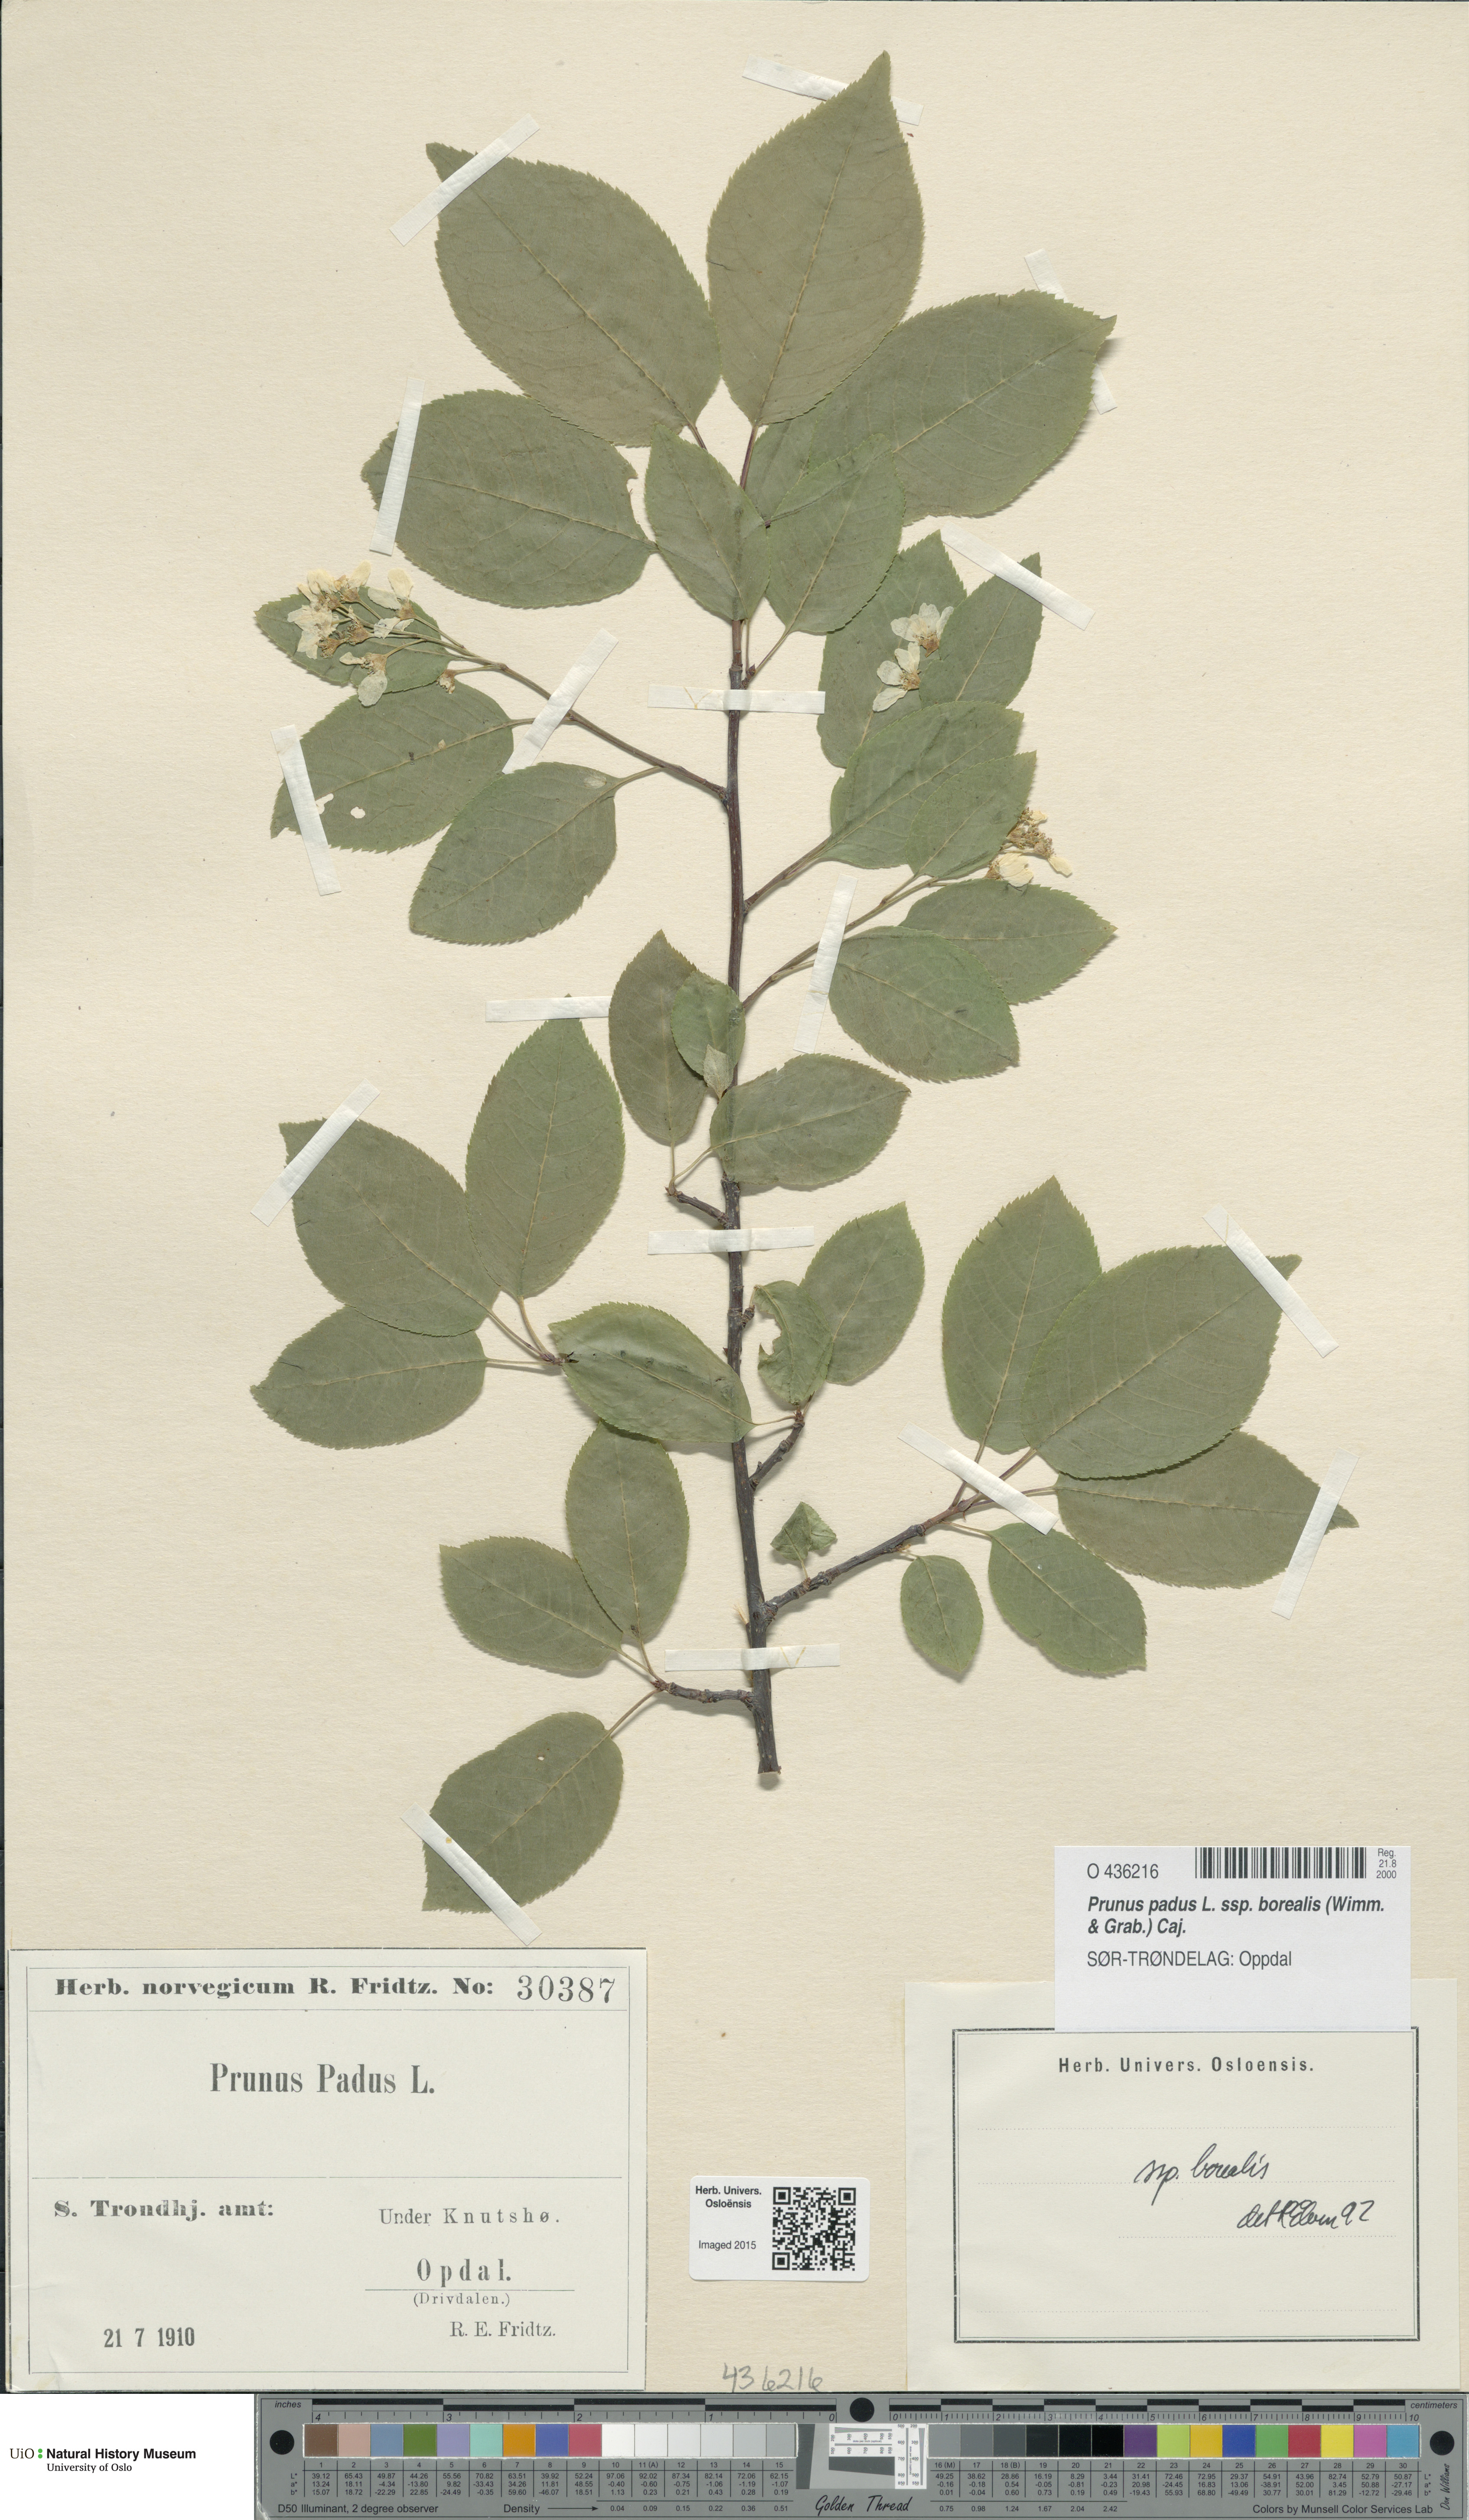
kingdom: Plantae
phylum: Tracheophyta
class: Magnoliopsida
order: Rosales
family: Rosaceae
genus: Prunus
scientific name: Prunus padus
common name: Bird cherry
